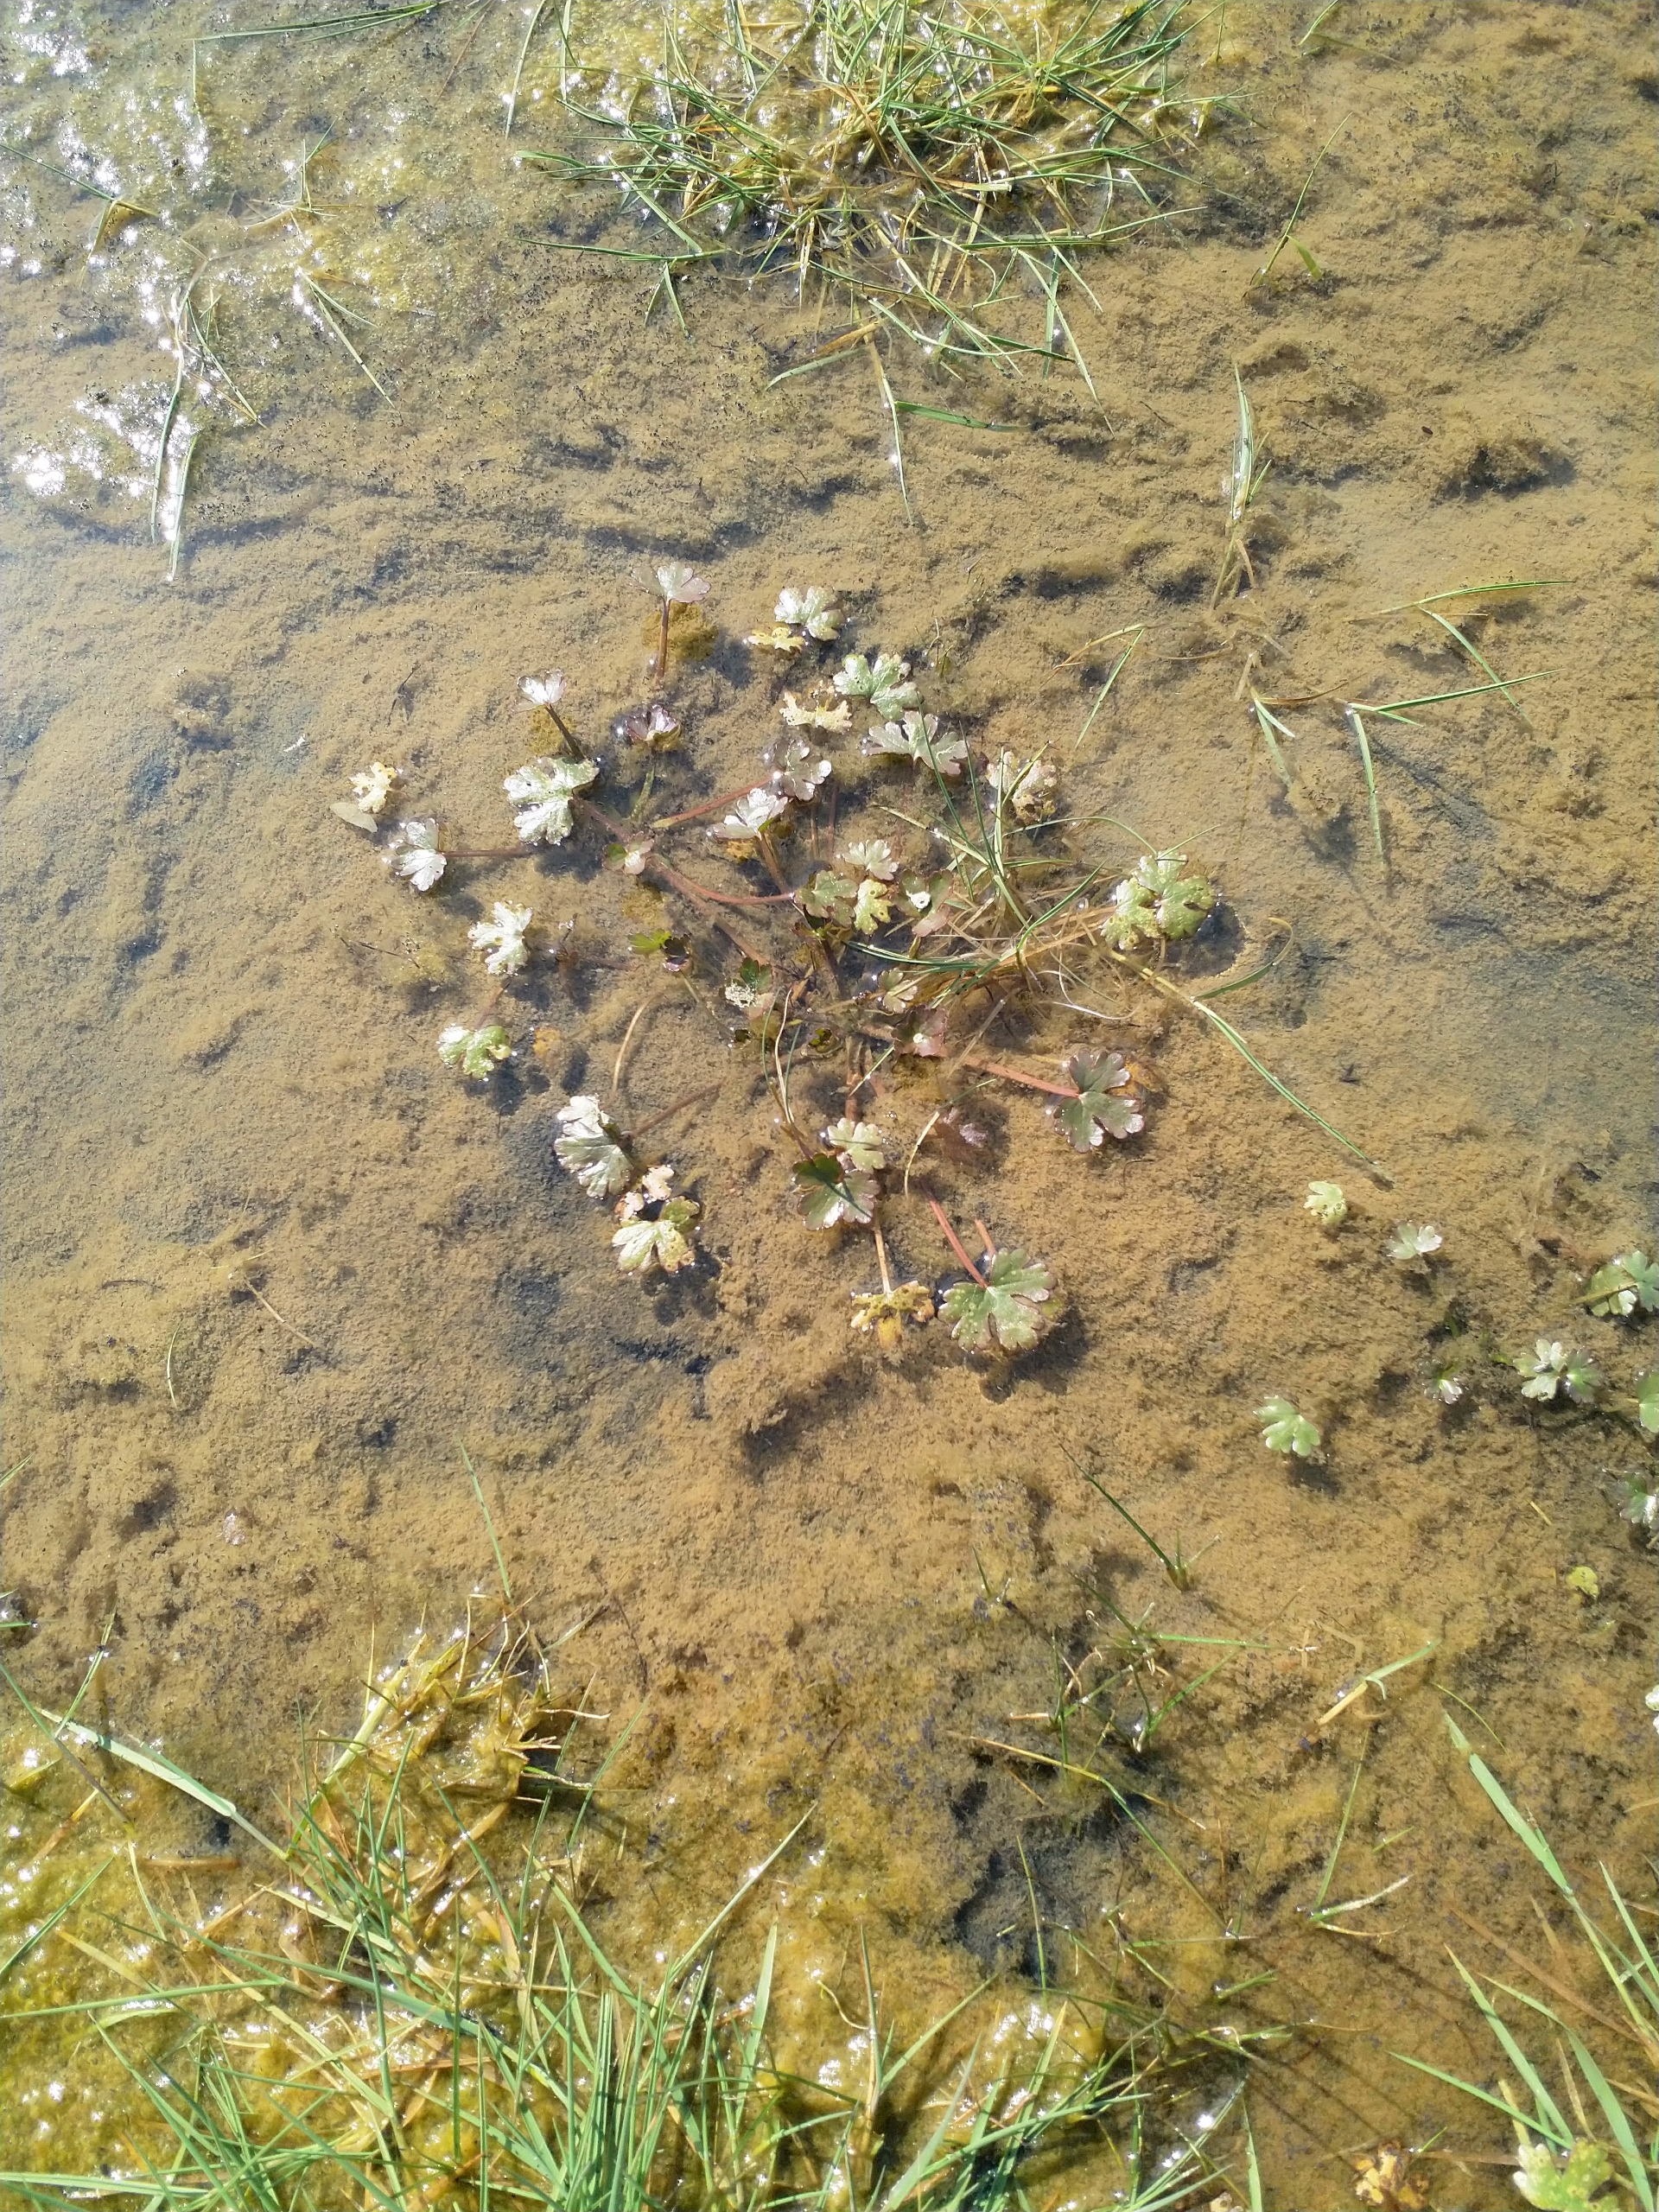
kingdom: Plantae
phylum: Tracheophyta
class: Magnoliopsida
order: Ranunculales
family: Ranunculaceae
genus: Ranunculus
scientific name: Ranunculus sceleratus
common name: Tigger-ranunkel
